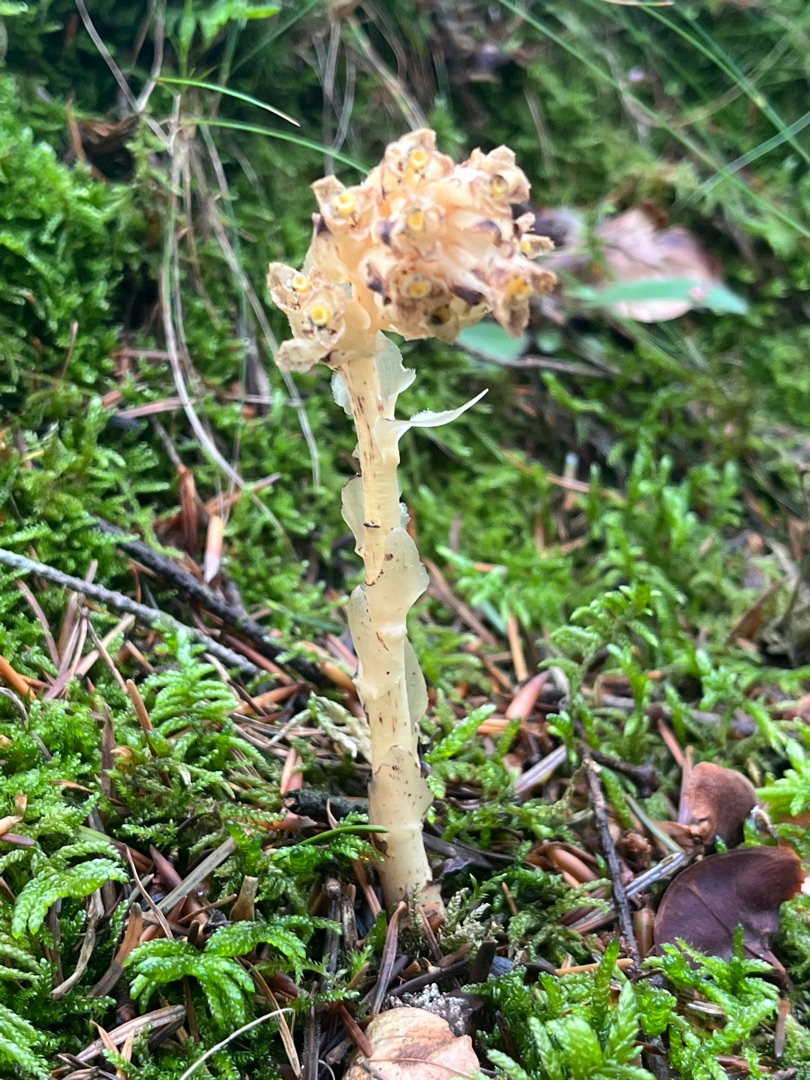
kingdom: Plantae
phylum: Tracheophyta
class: Magnoliopsida
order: Ericales
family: Ericaceae
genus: Hypopitys
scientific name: Hypopitys monotropa
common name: Snylterod
